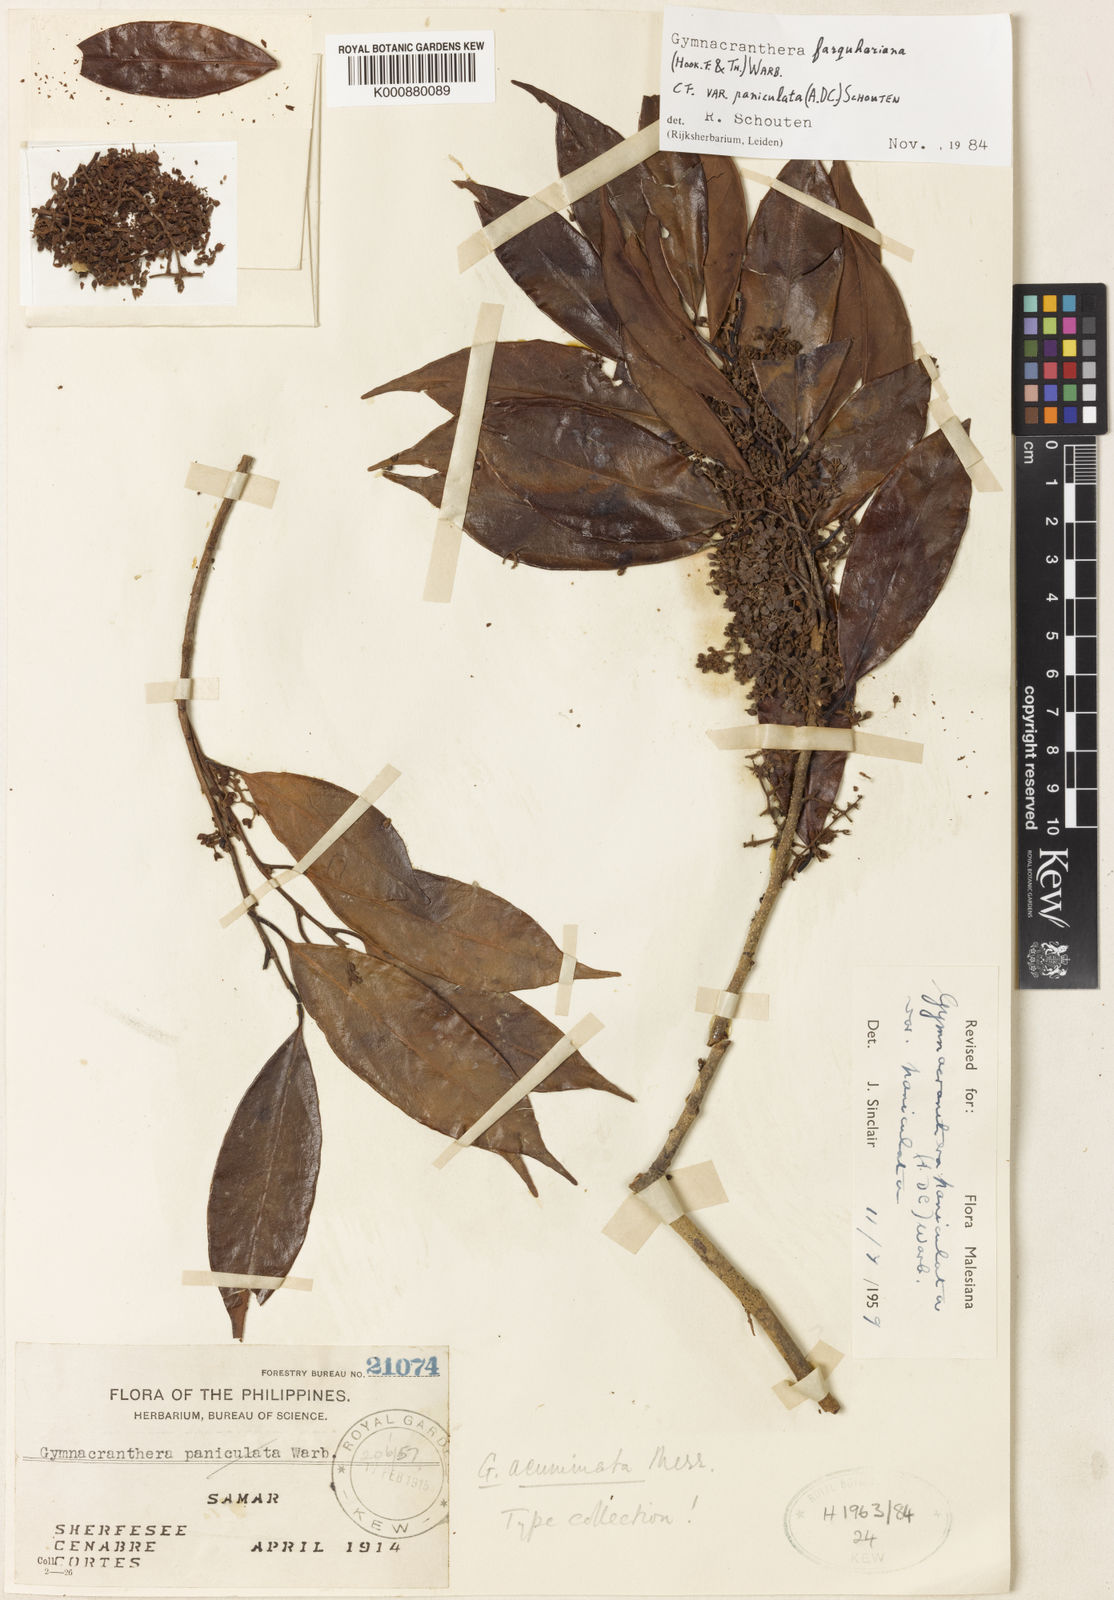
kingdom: Plantae
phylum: Tracheophyta
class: Magnoliopsida
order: Magnoliales
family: Myristicaceae
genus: Gymnacranthera
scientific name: Gymnacranthera farquhariana
